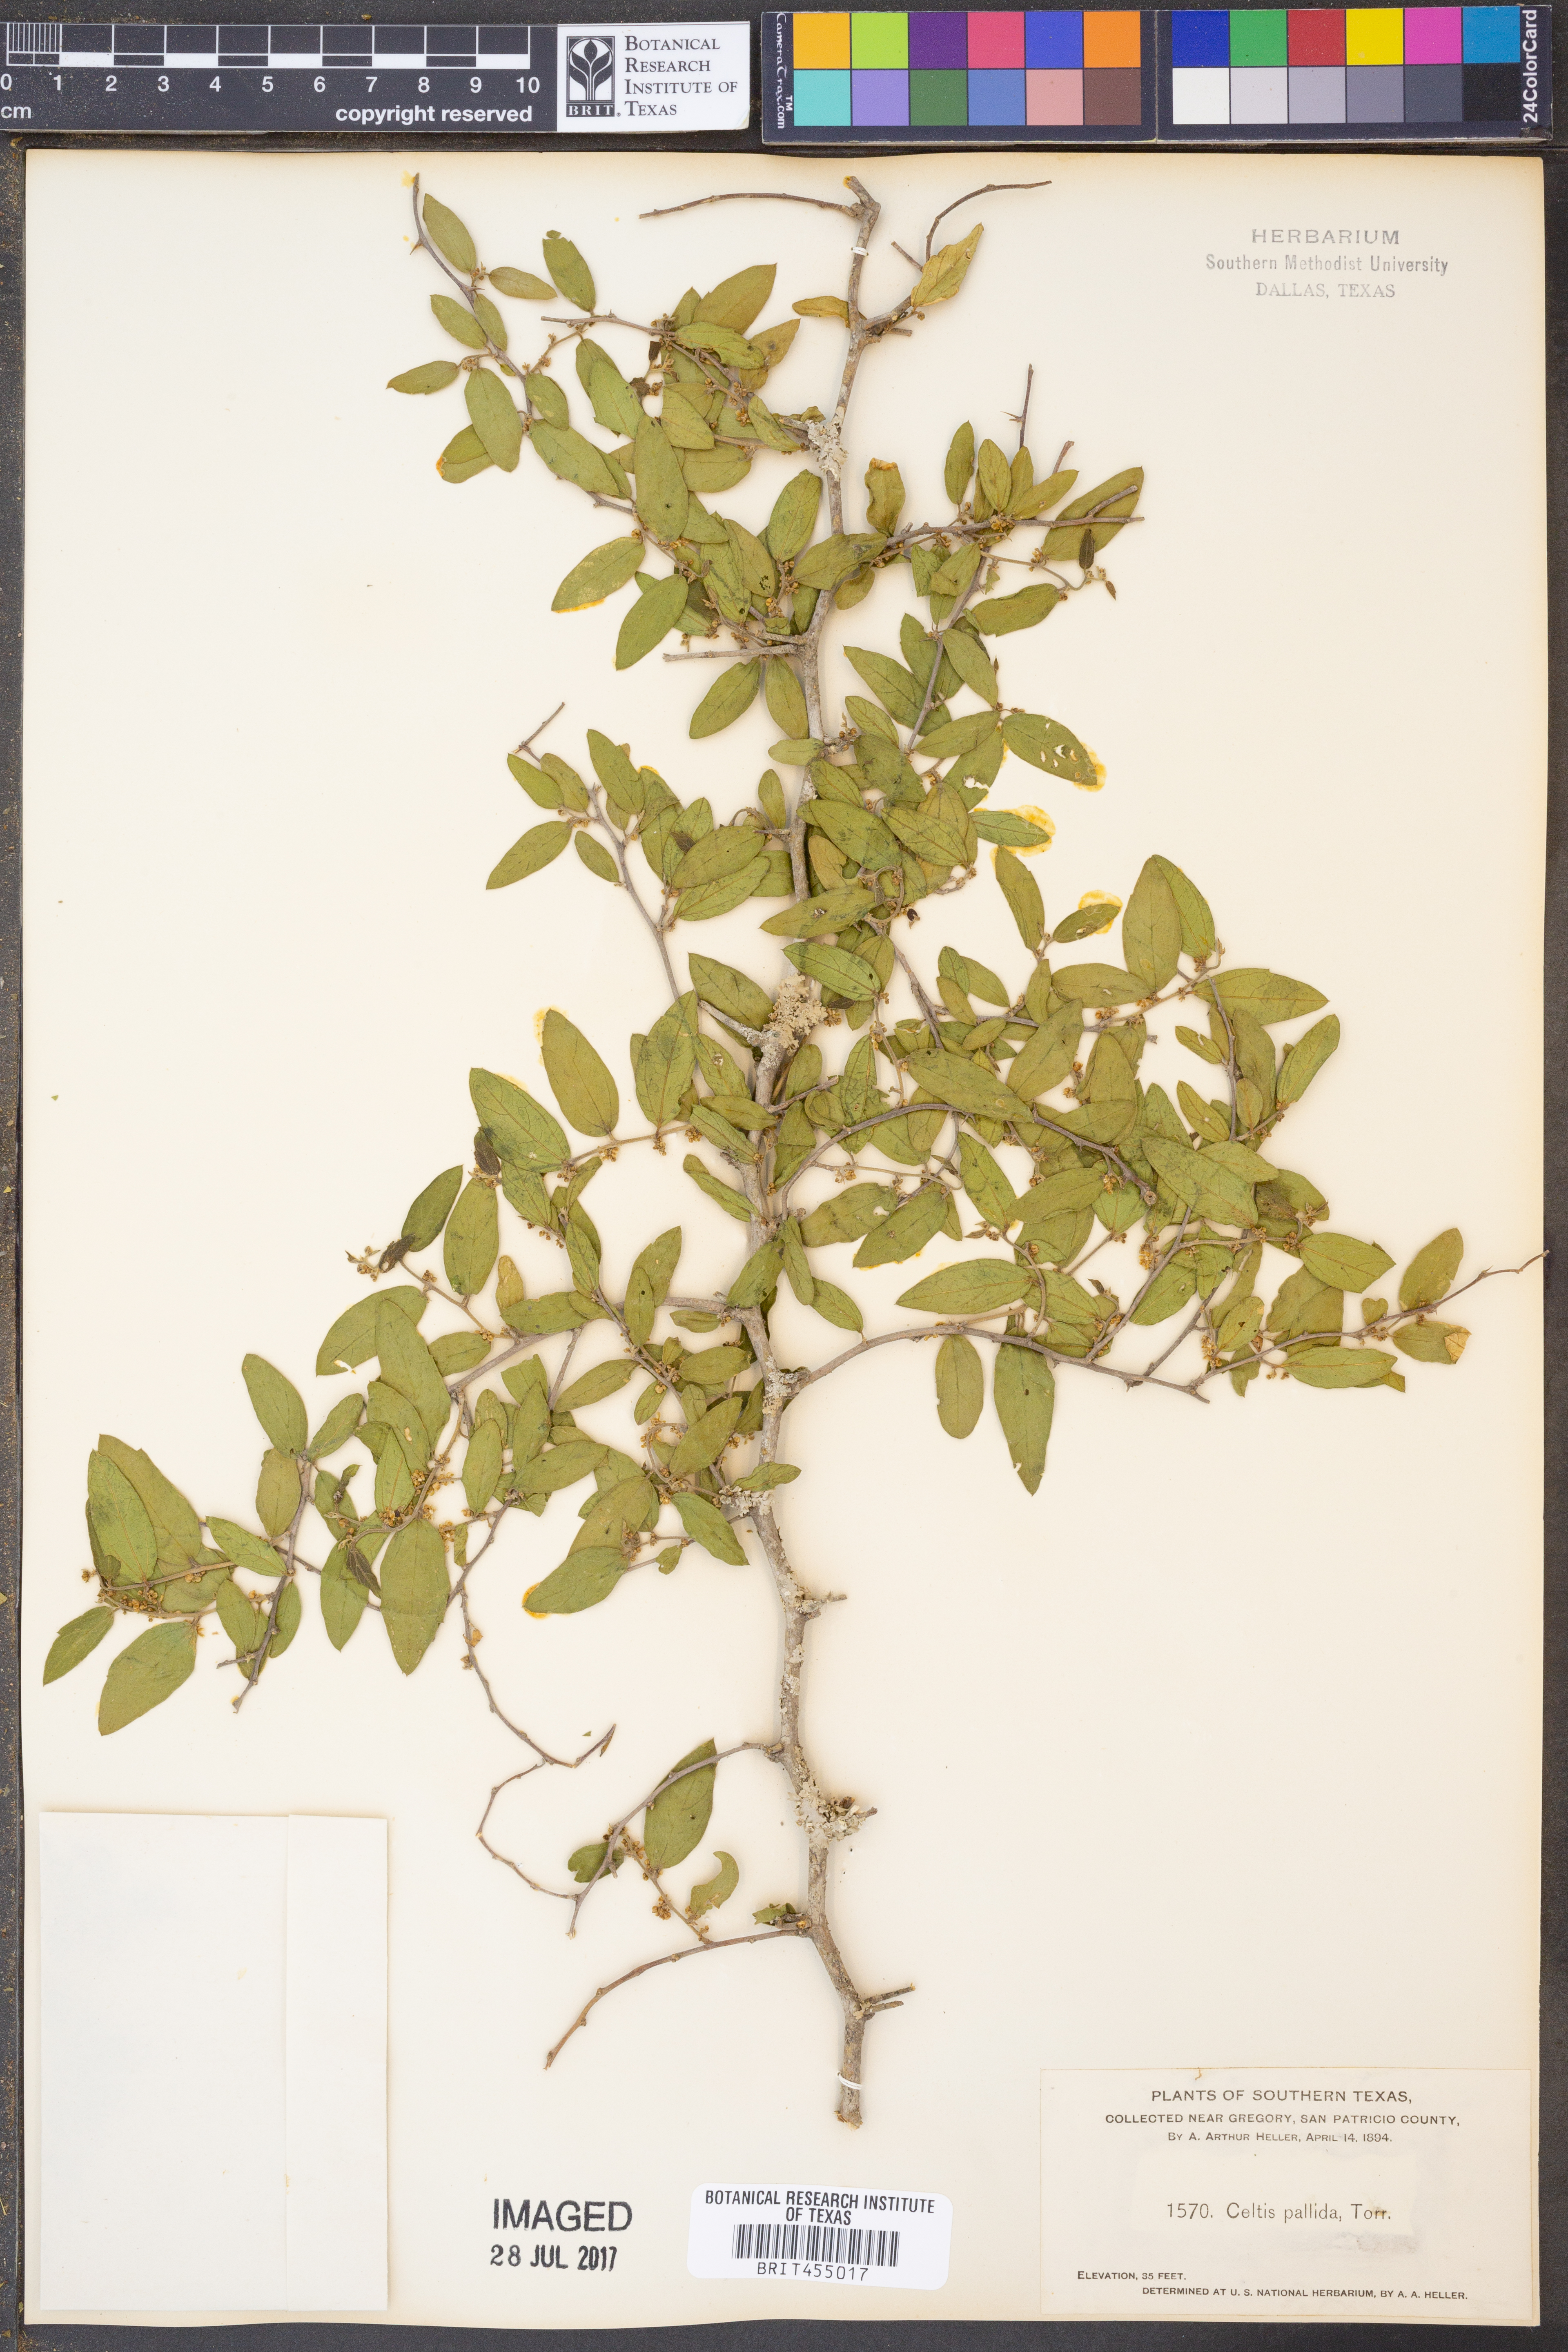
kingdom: Plantae
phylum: Tracheophyta
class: Magnoliopsida
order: Rosales
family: Cannabaceae
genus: Celtis
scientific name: Celtis pallida
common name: Desert hackberry
